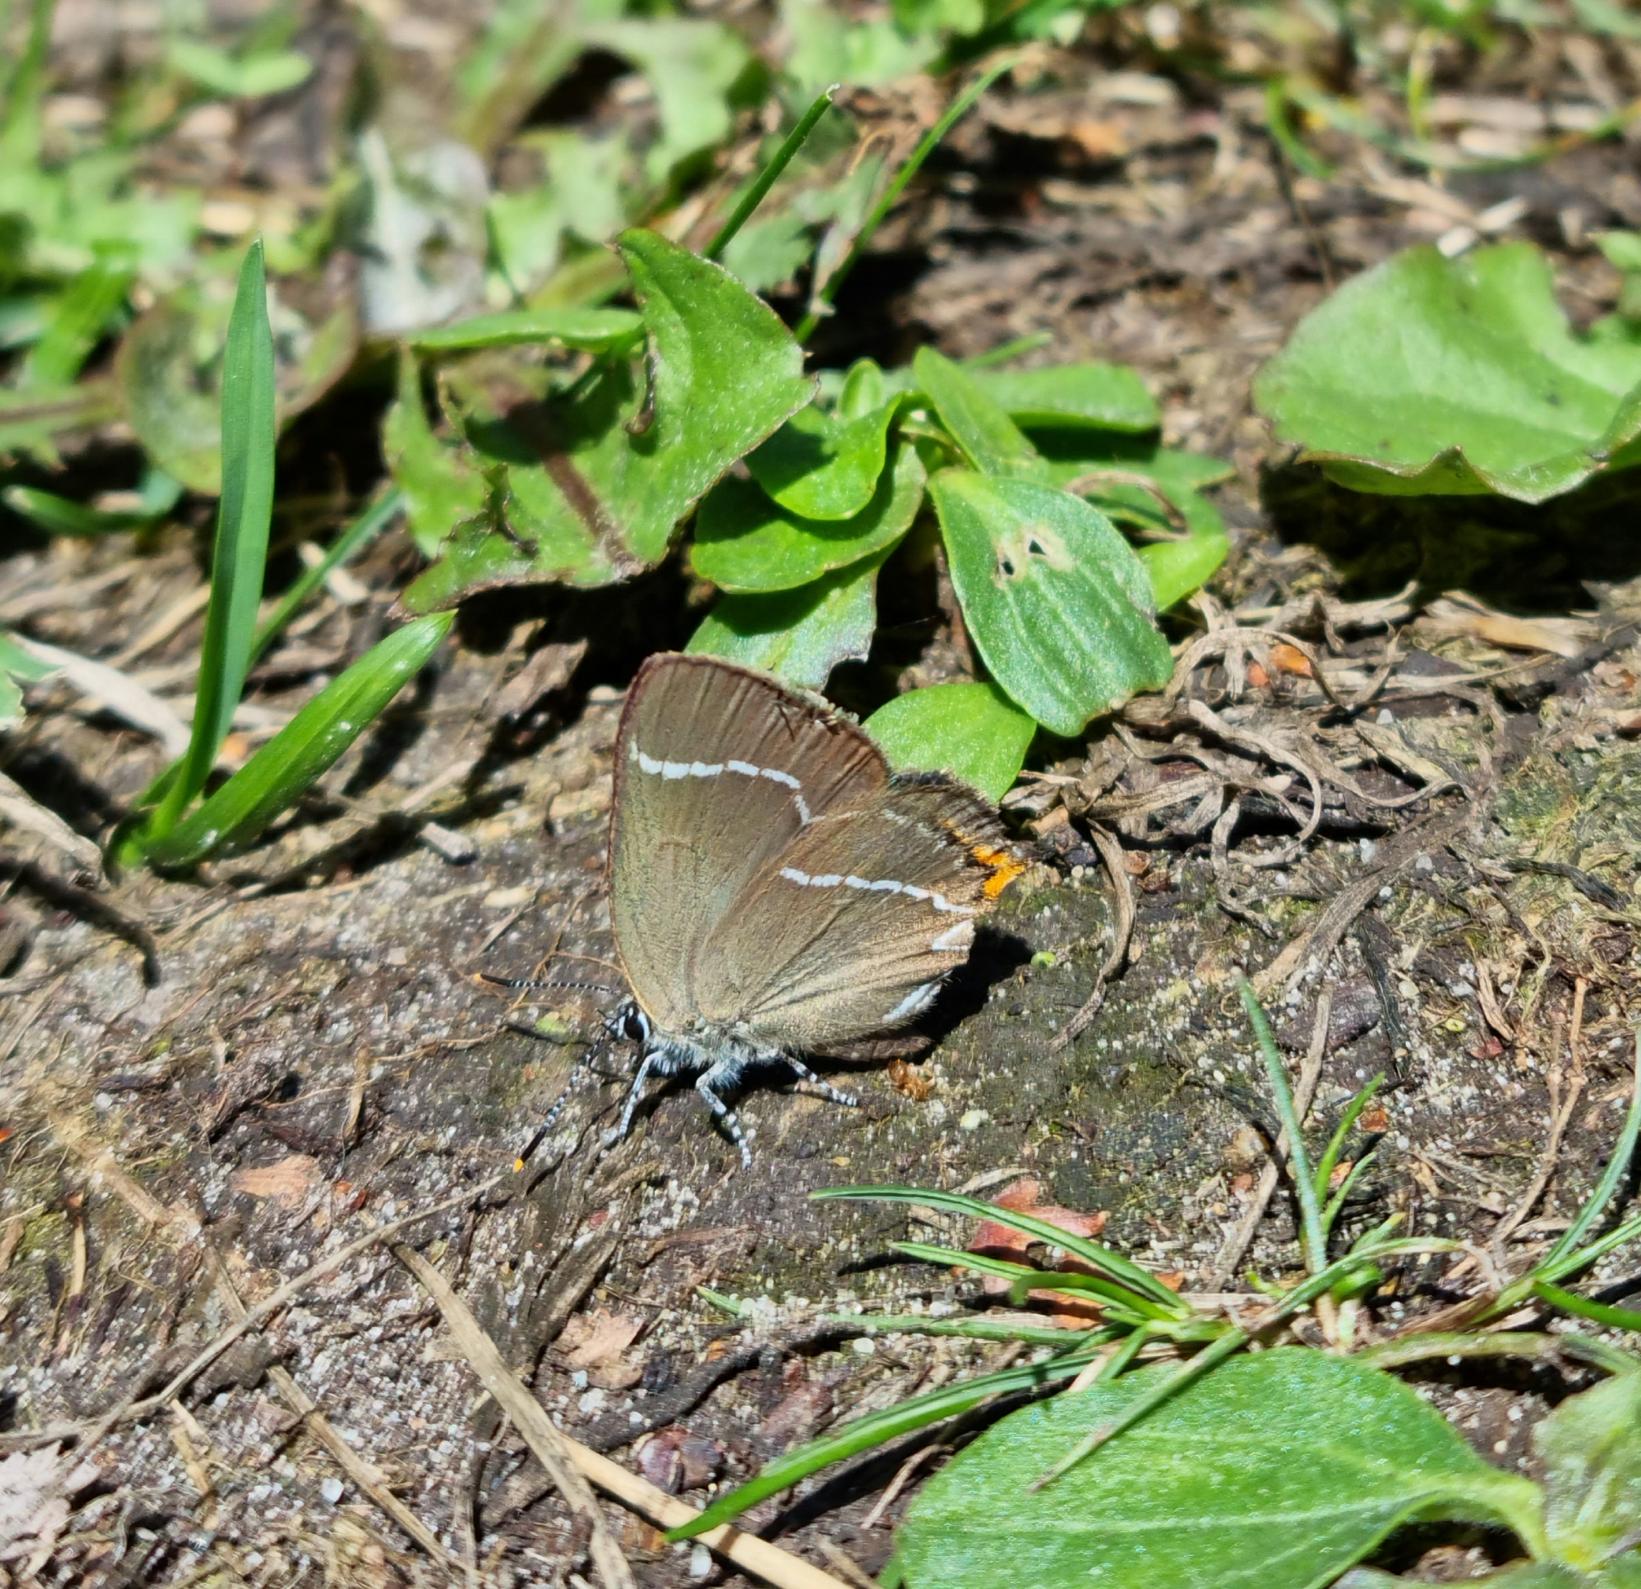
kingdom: Animalia
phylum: Arthropoda
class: Insecta
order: Lepidoptera
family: Lycaenidae
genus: Satyrium
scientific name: Satyrium w-album
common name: Det hvide W
